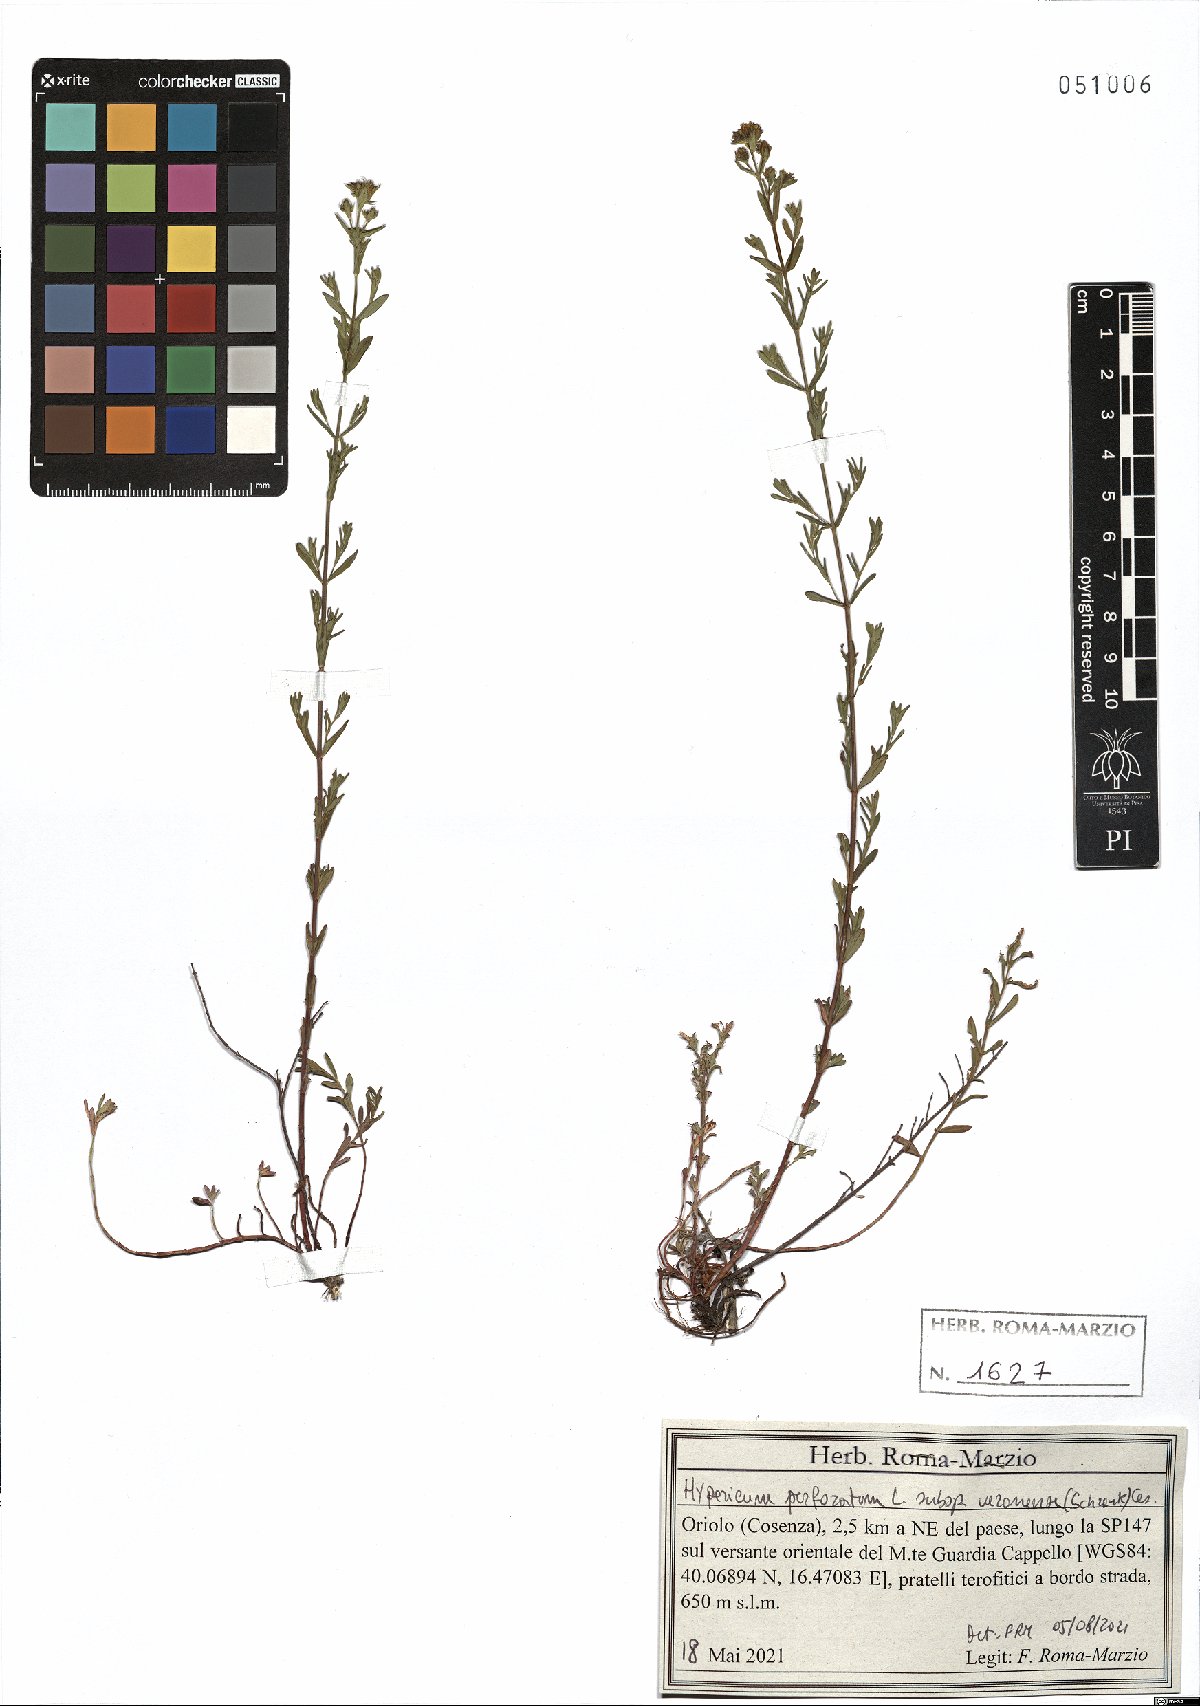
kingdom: Plantae
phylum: Tracheophyta
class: Magnoliopsida
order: Malpighiales
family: Hypericaceae
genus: Hypericum
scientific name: Hypericum veronense
